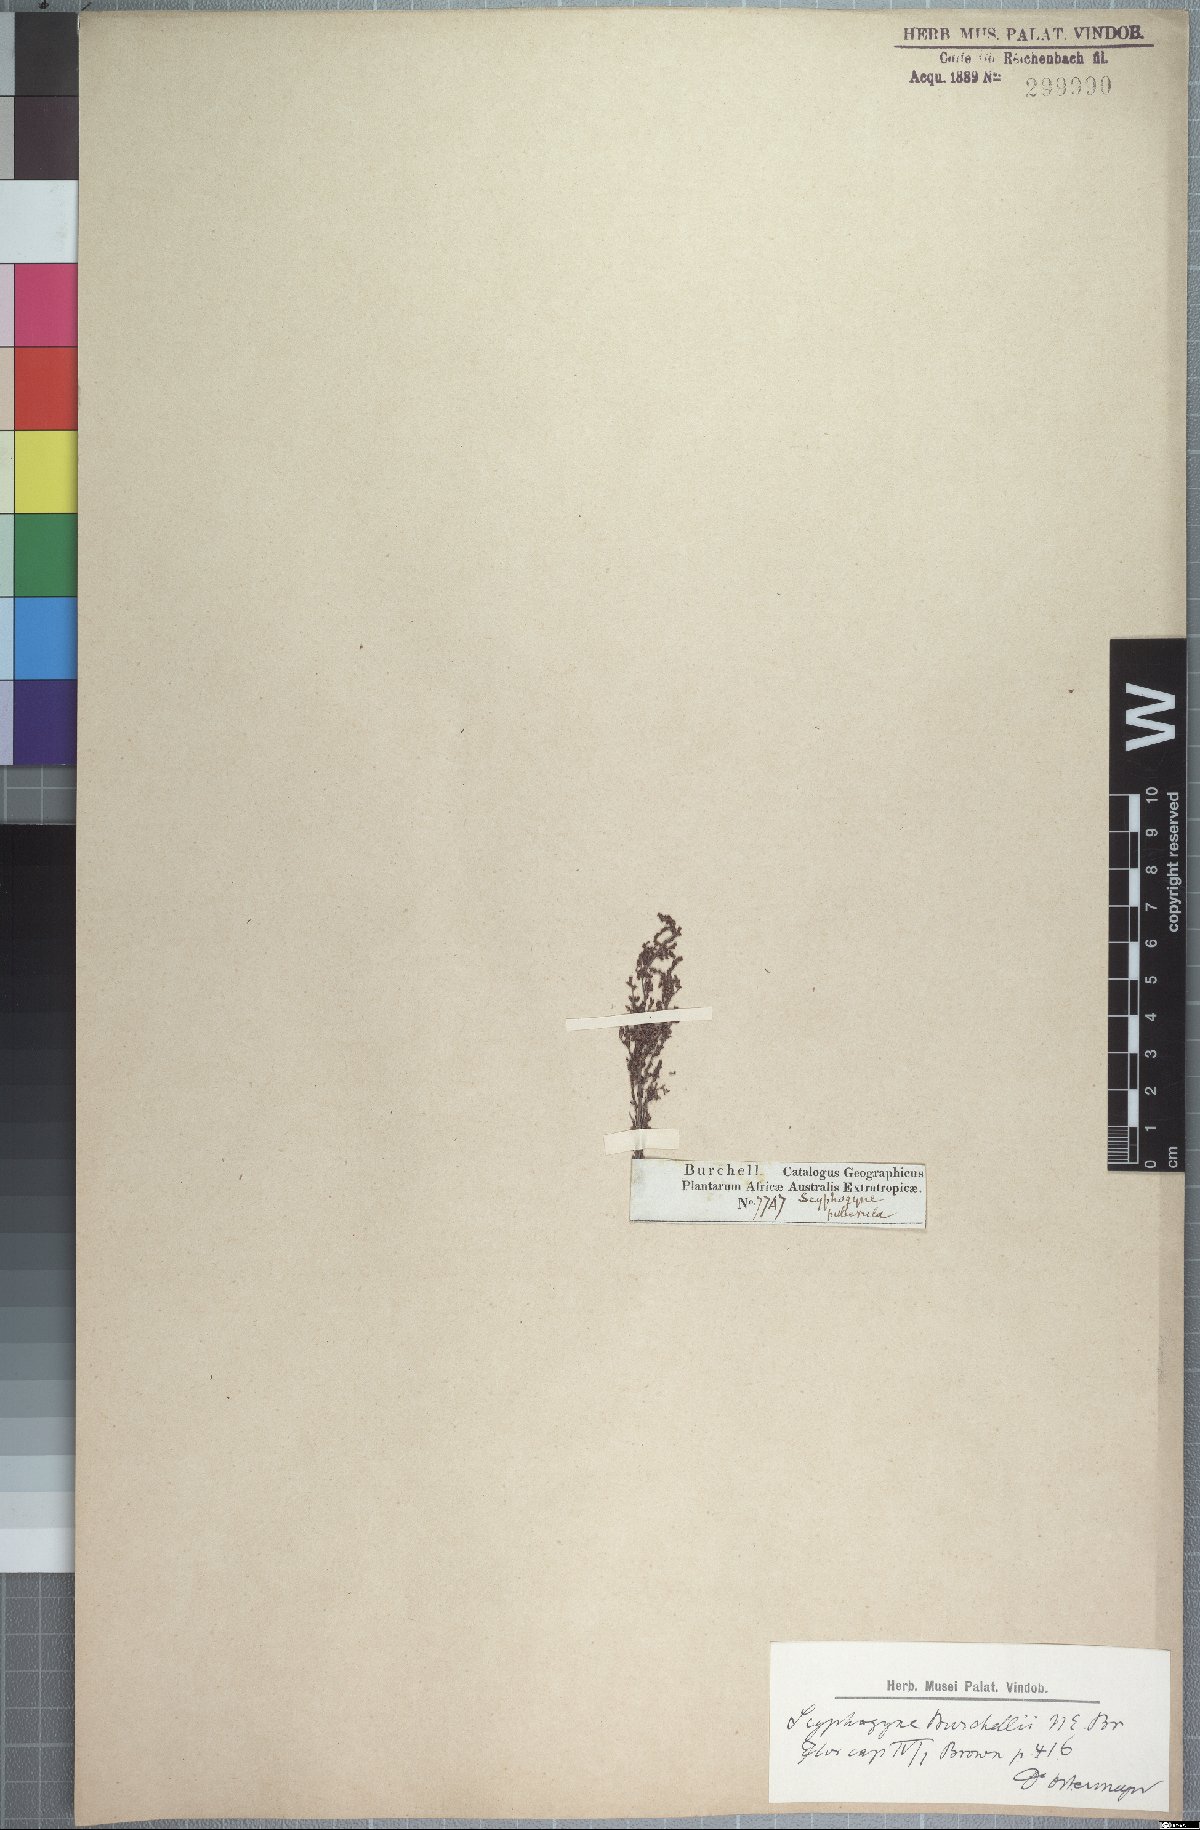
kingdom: Plantae
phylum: Tracheophyta
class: Magnoliopsida
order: Ericales
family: Ericaceae
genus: Erica
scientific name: Erica urceolata
